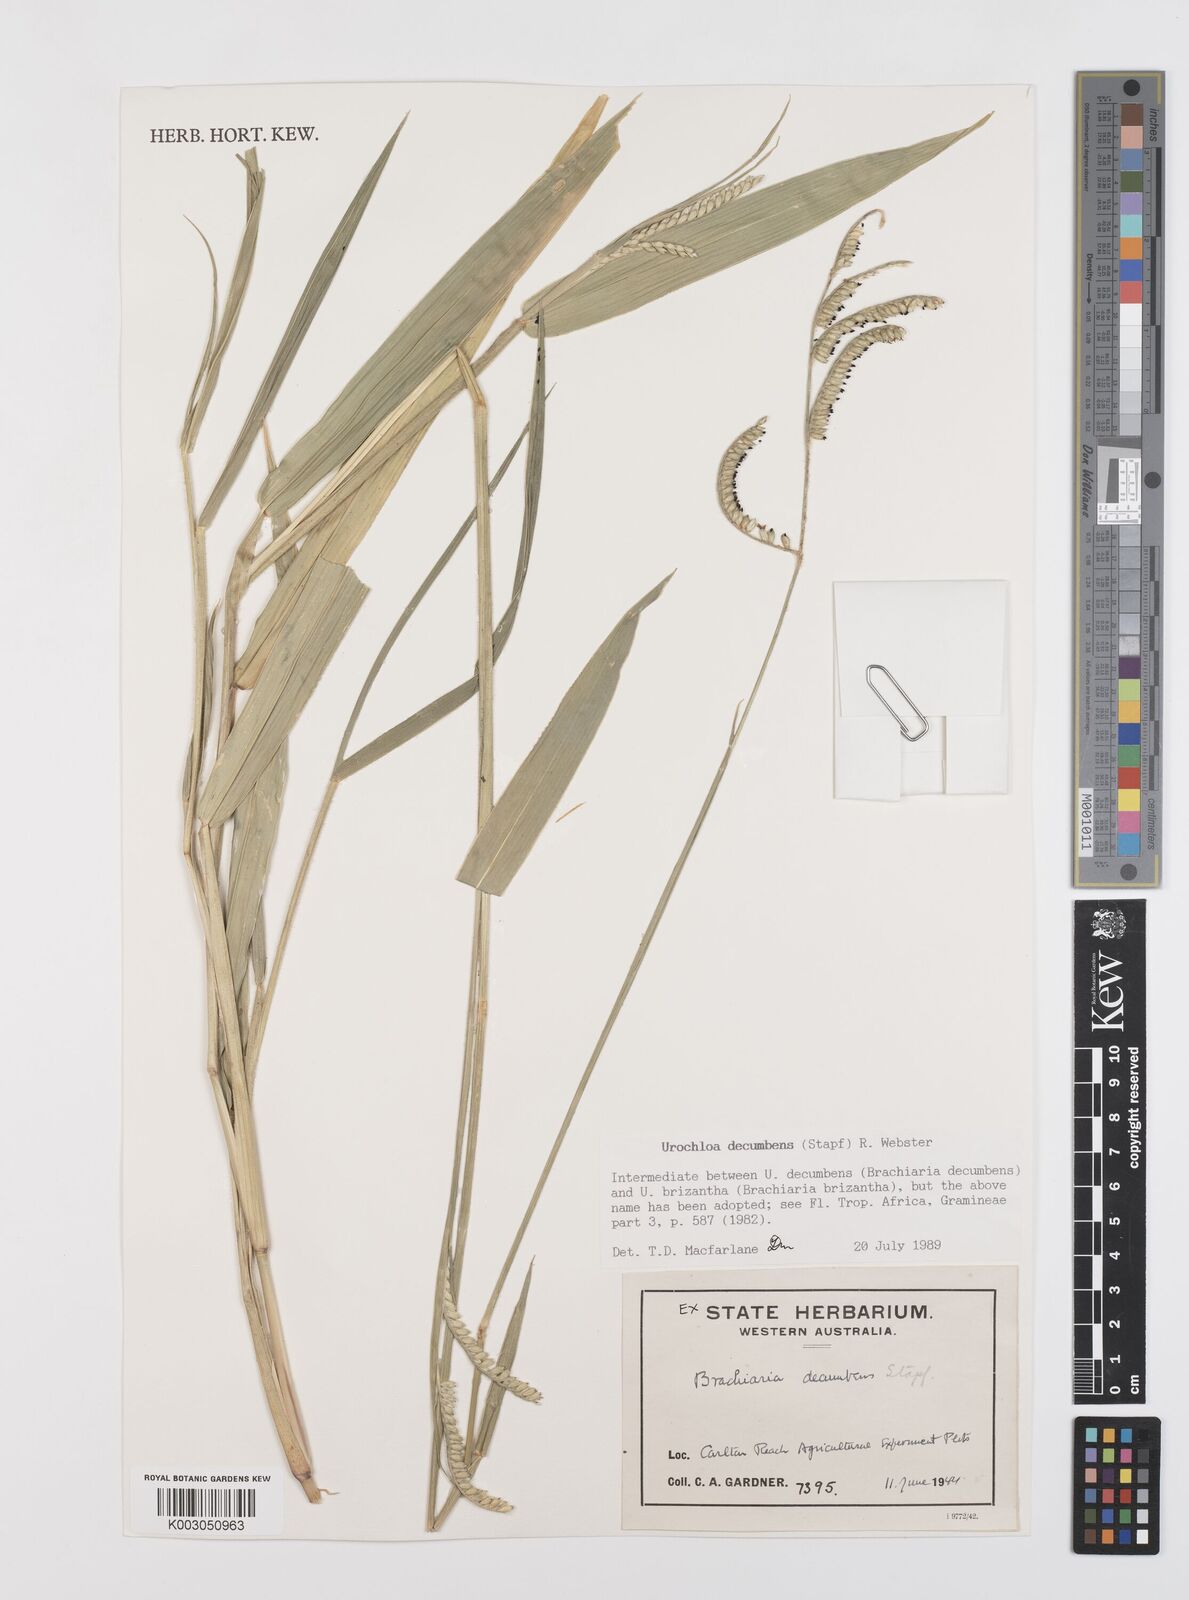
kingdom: Plantae
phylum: Tracheophyta
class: Liliopsida
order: Poales
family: Poaceae
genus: Urochloa
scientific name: Urochloa eminii
